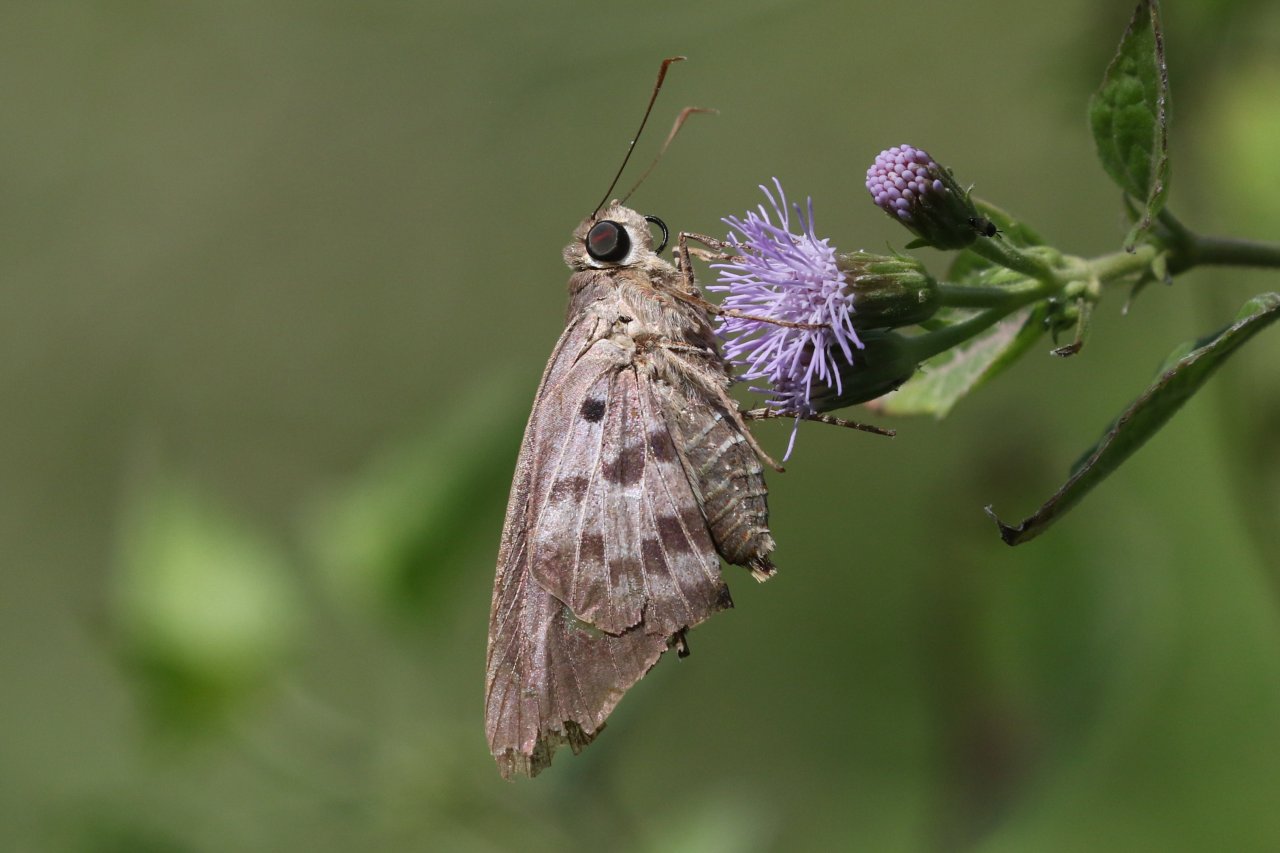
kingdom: Animalia
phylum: Arthropoda
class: Insecta
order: Lepidoptera
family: Hesperiidae
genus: Polygonus
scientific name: Polygonus leo
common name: Hammock Skipper
